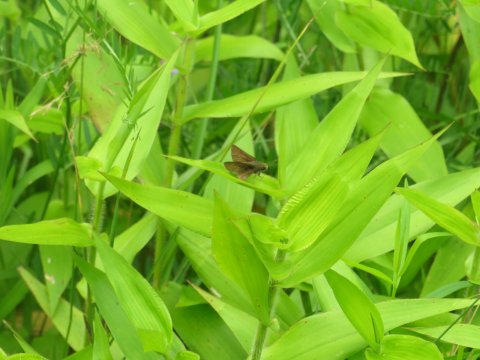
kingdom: Animalia
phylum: Arthropoda
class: Insecta
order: Lepidoptera
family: Hesperiidae
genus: Euphyes
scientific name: Euphyes vestris
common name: Dun Skipper
